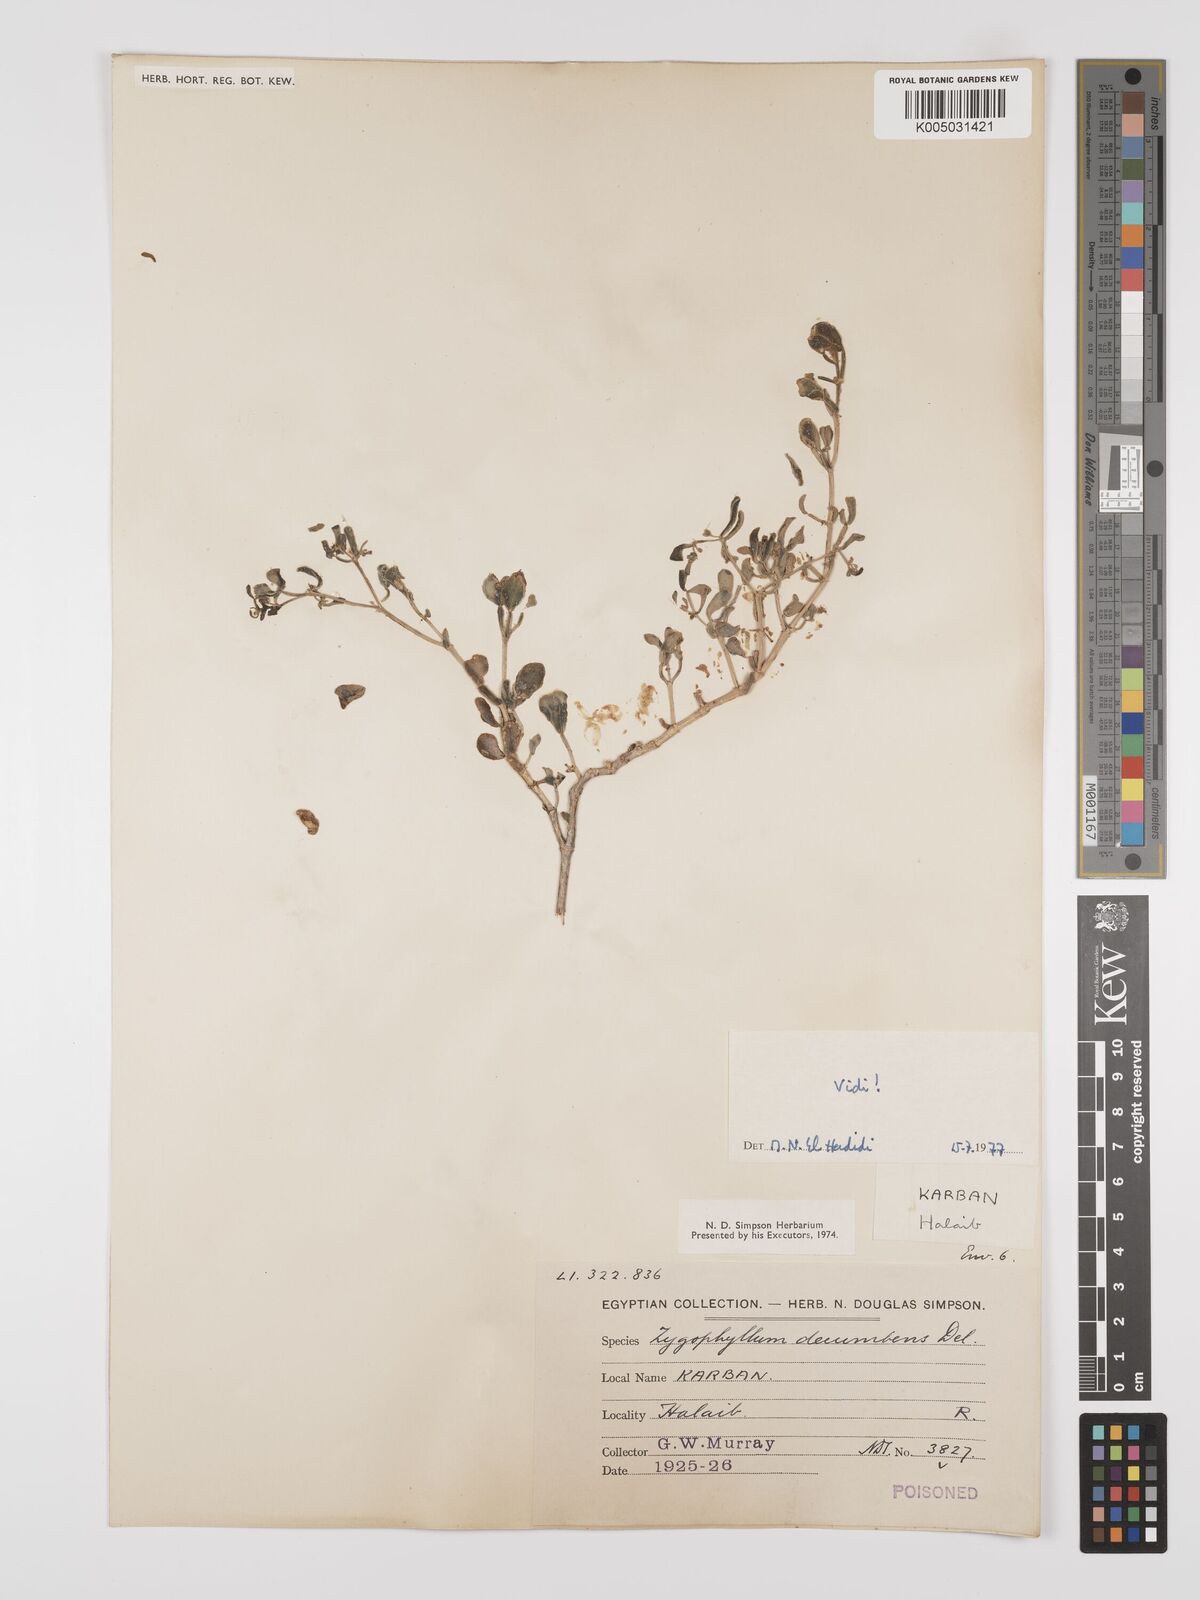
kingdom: Plantae
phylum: Tracheophyta
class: Magnoliopsida
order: Zygophyllales
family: Zygophyllaceae
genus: Tetraena
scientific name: Tetraena decumbens
